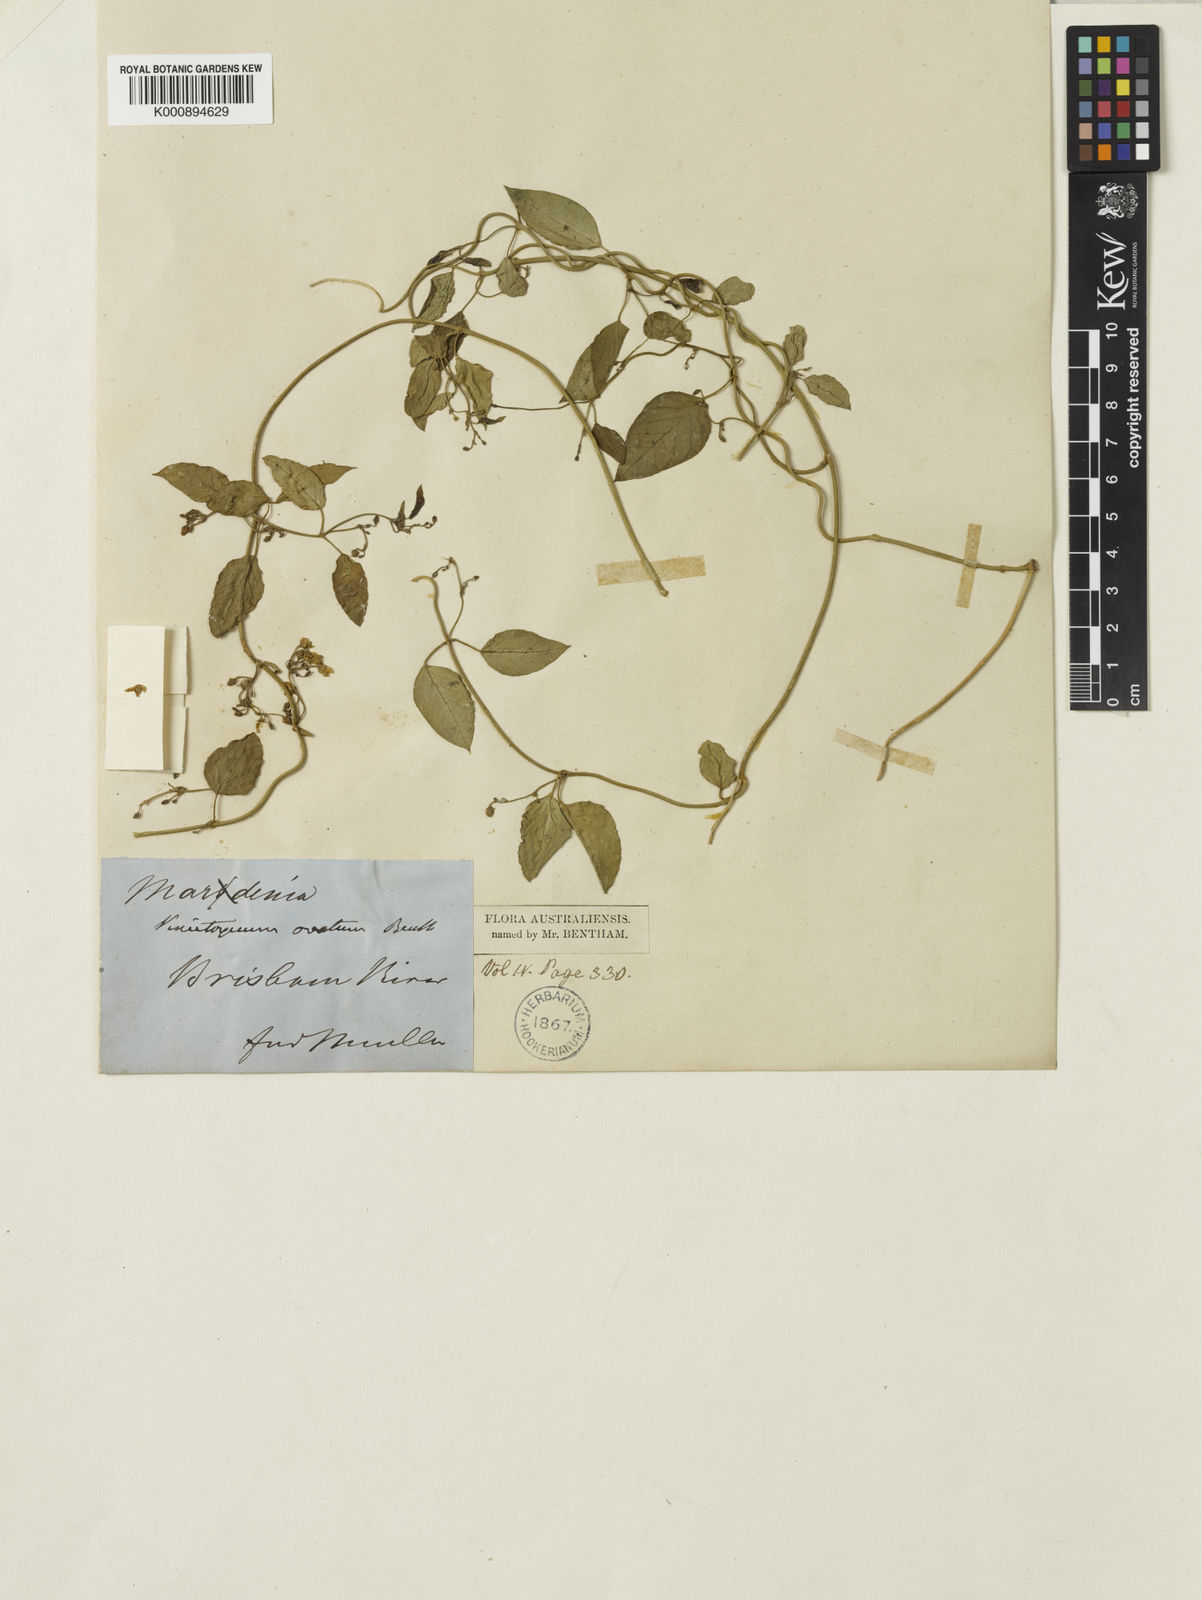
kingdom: Plantae
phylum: Tracheophyta
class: Magnoliopsida
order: Gentianales
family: Apocynaceae
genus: Vincetoxicum
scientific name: Vincetoxicum ovatum
